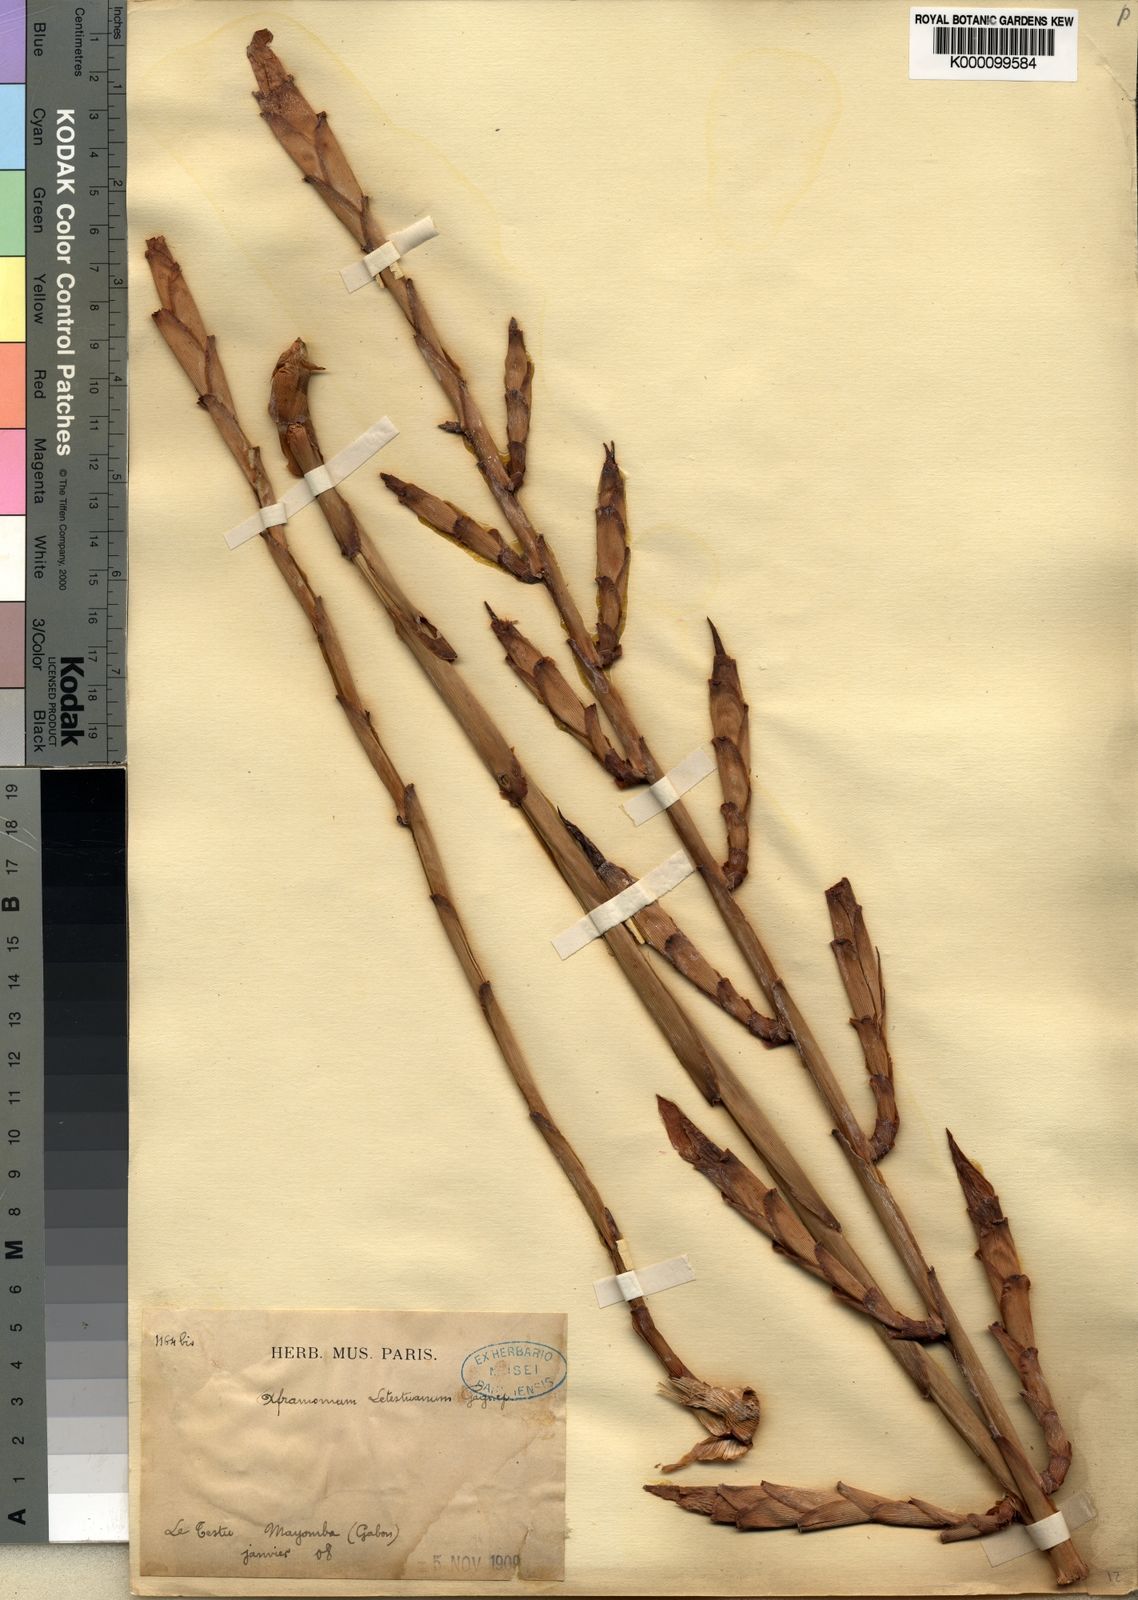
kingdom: Plantae
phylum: Tracheophyta
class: Liliopsida
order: Zingiberales
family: Zingiberaceae
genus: Aframomum
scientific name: Aframomum letestuanum
